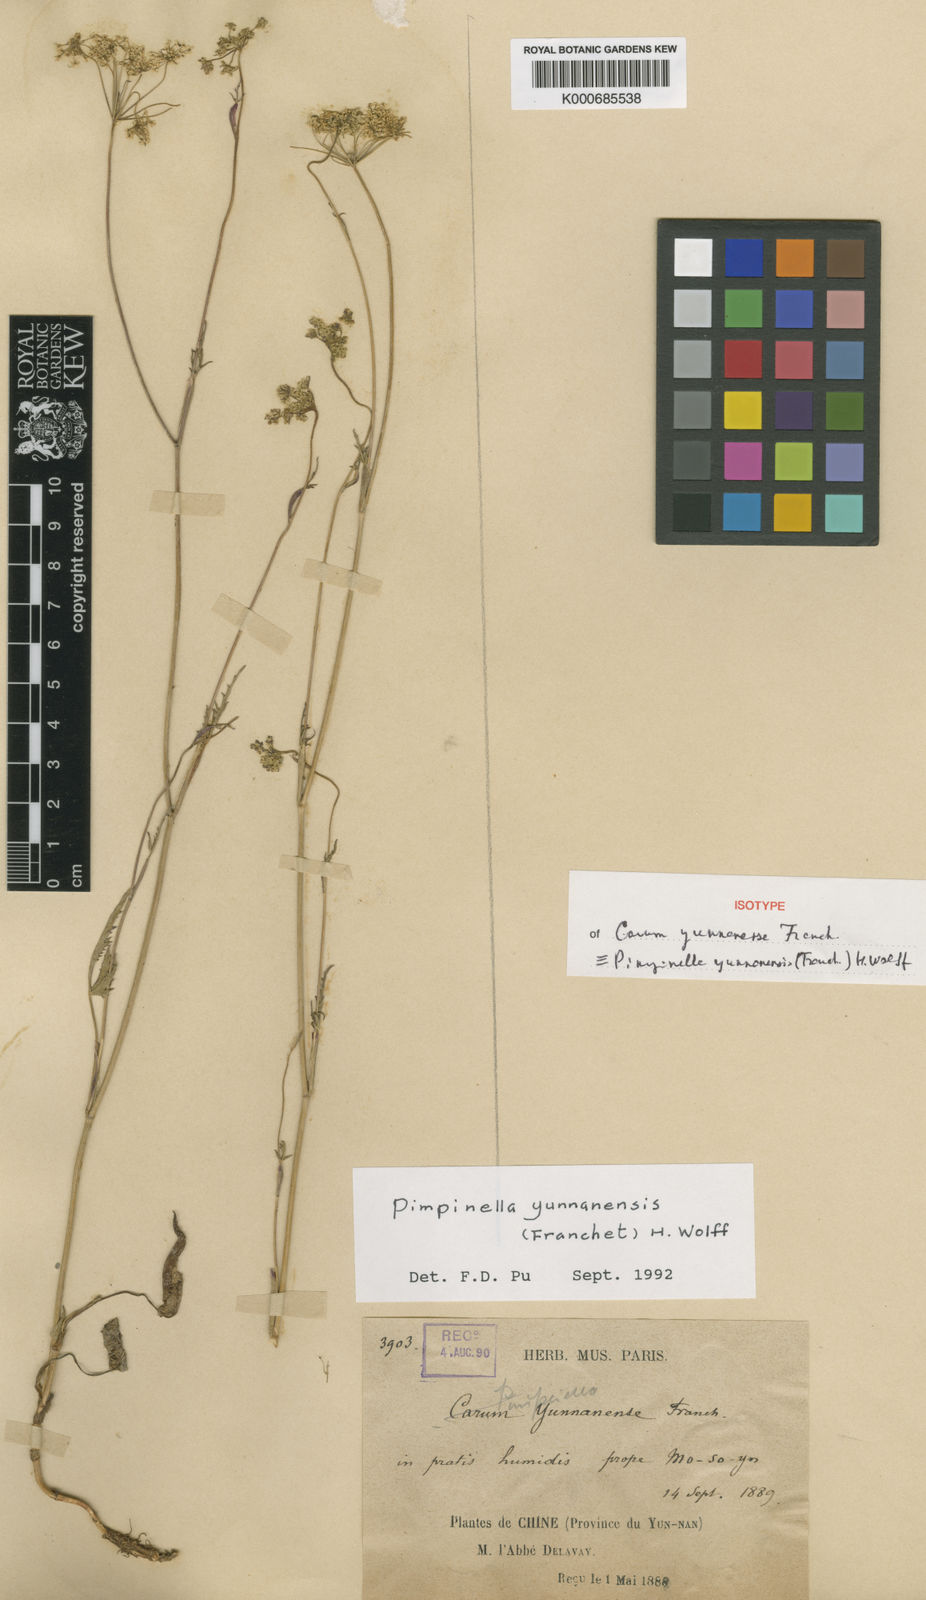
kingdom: Plantae
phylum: Tracheophyta
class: Magnoliopsida
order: Apiales
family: Apiaceae
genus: Pimpinella
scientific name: Pimpinella yunnanensis
